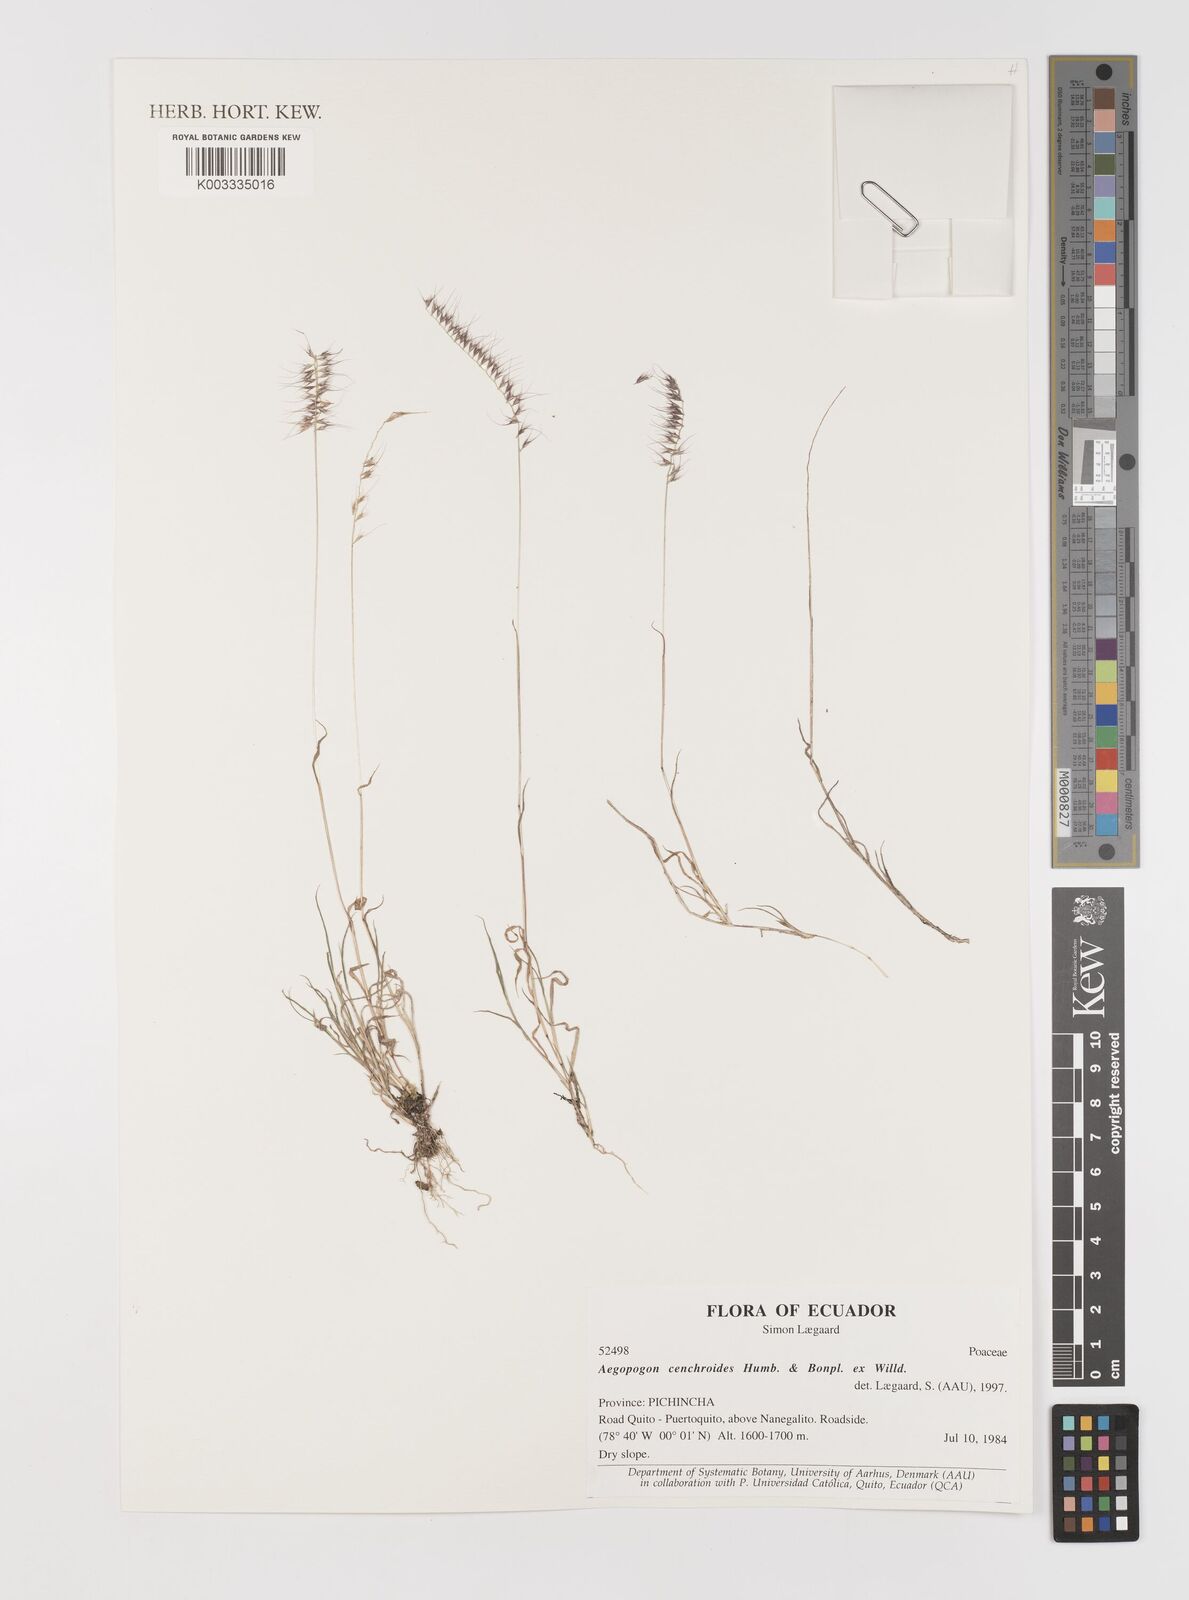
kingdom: Plantae
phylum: Tracheophyta
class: Liliopsida
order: Poales
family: Poaceae
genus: Muhlenbergia
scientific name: Muhlenbergia cenchroides
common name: Relaxgrass
